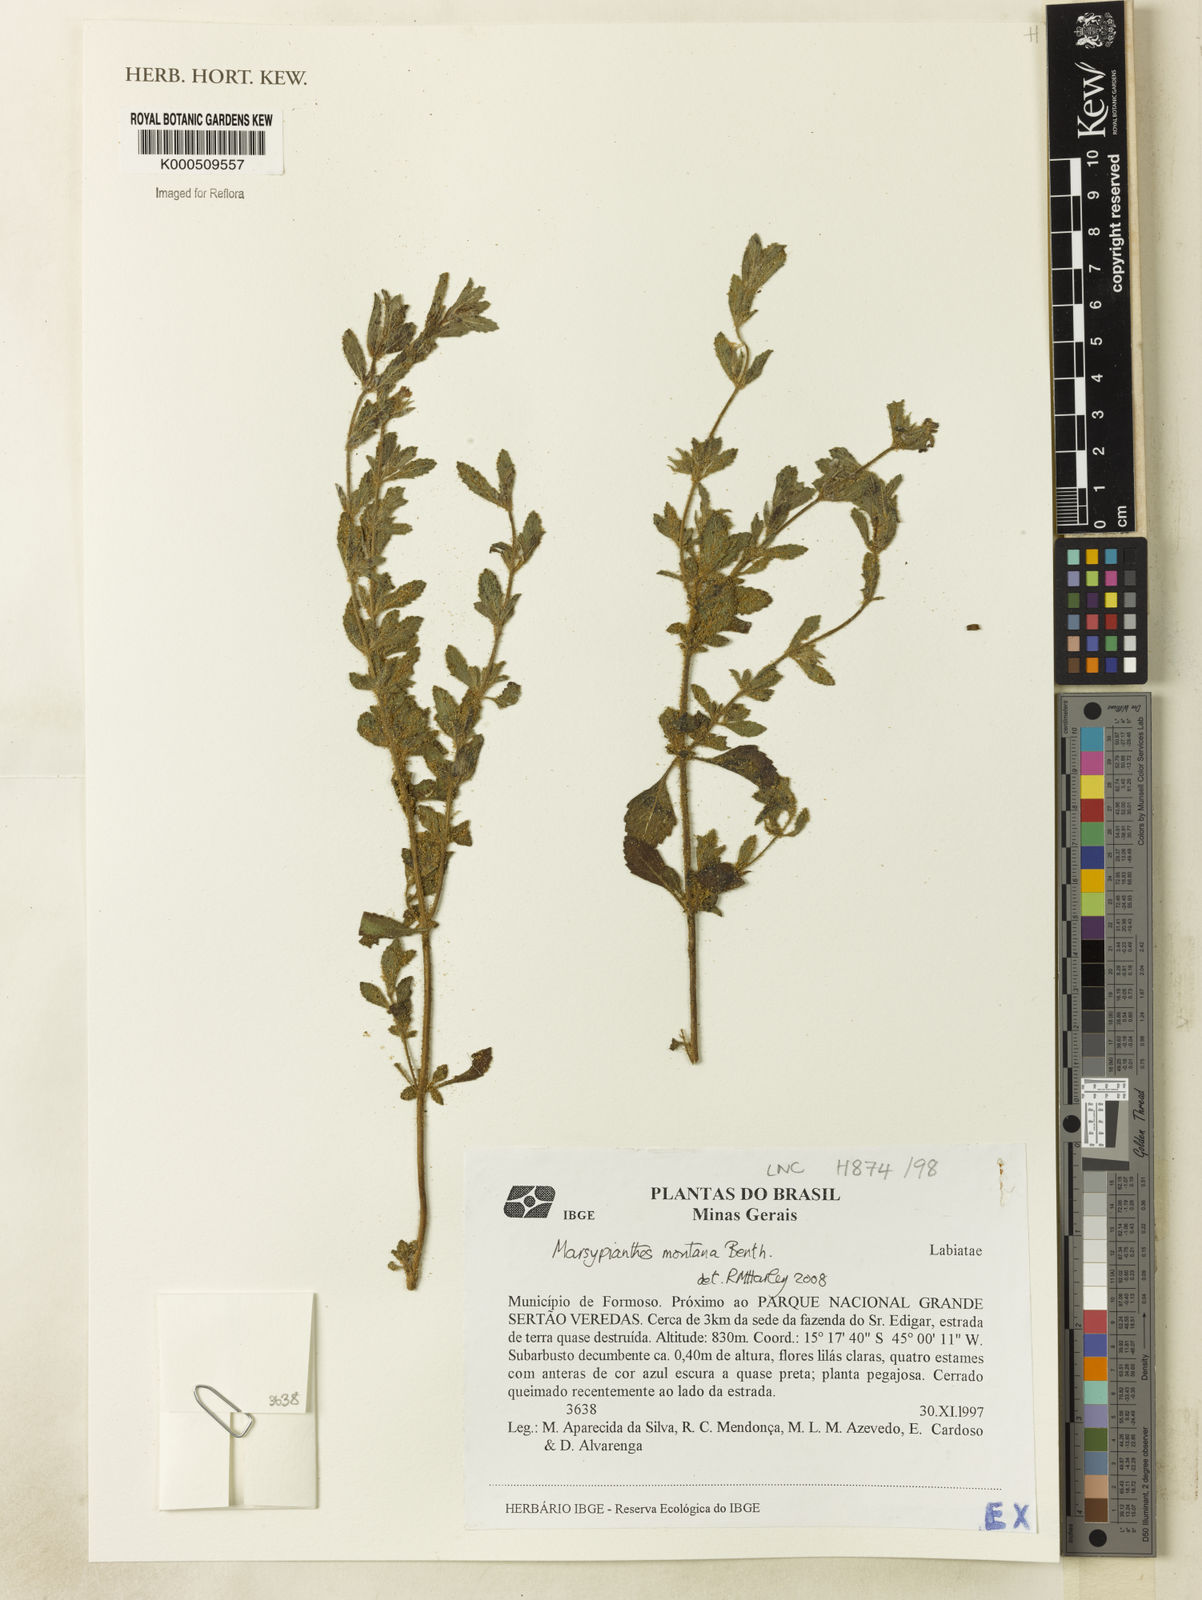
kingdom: Plantae
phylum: Tracheophyta
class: Magnoliopsida
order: Lamiales
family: Lamiaceae
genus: Marsypianthes
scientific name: Marsypianthes montana
